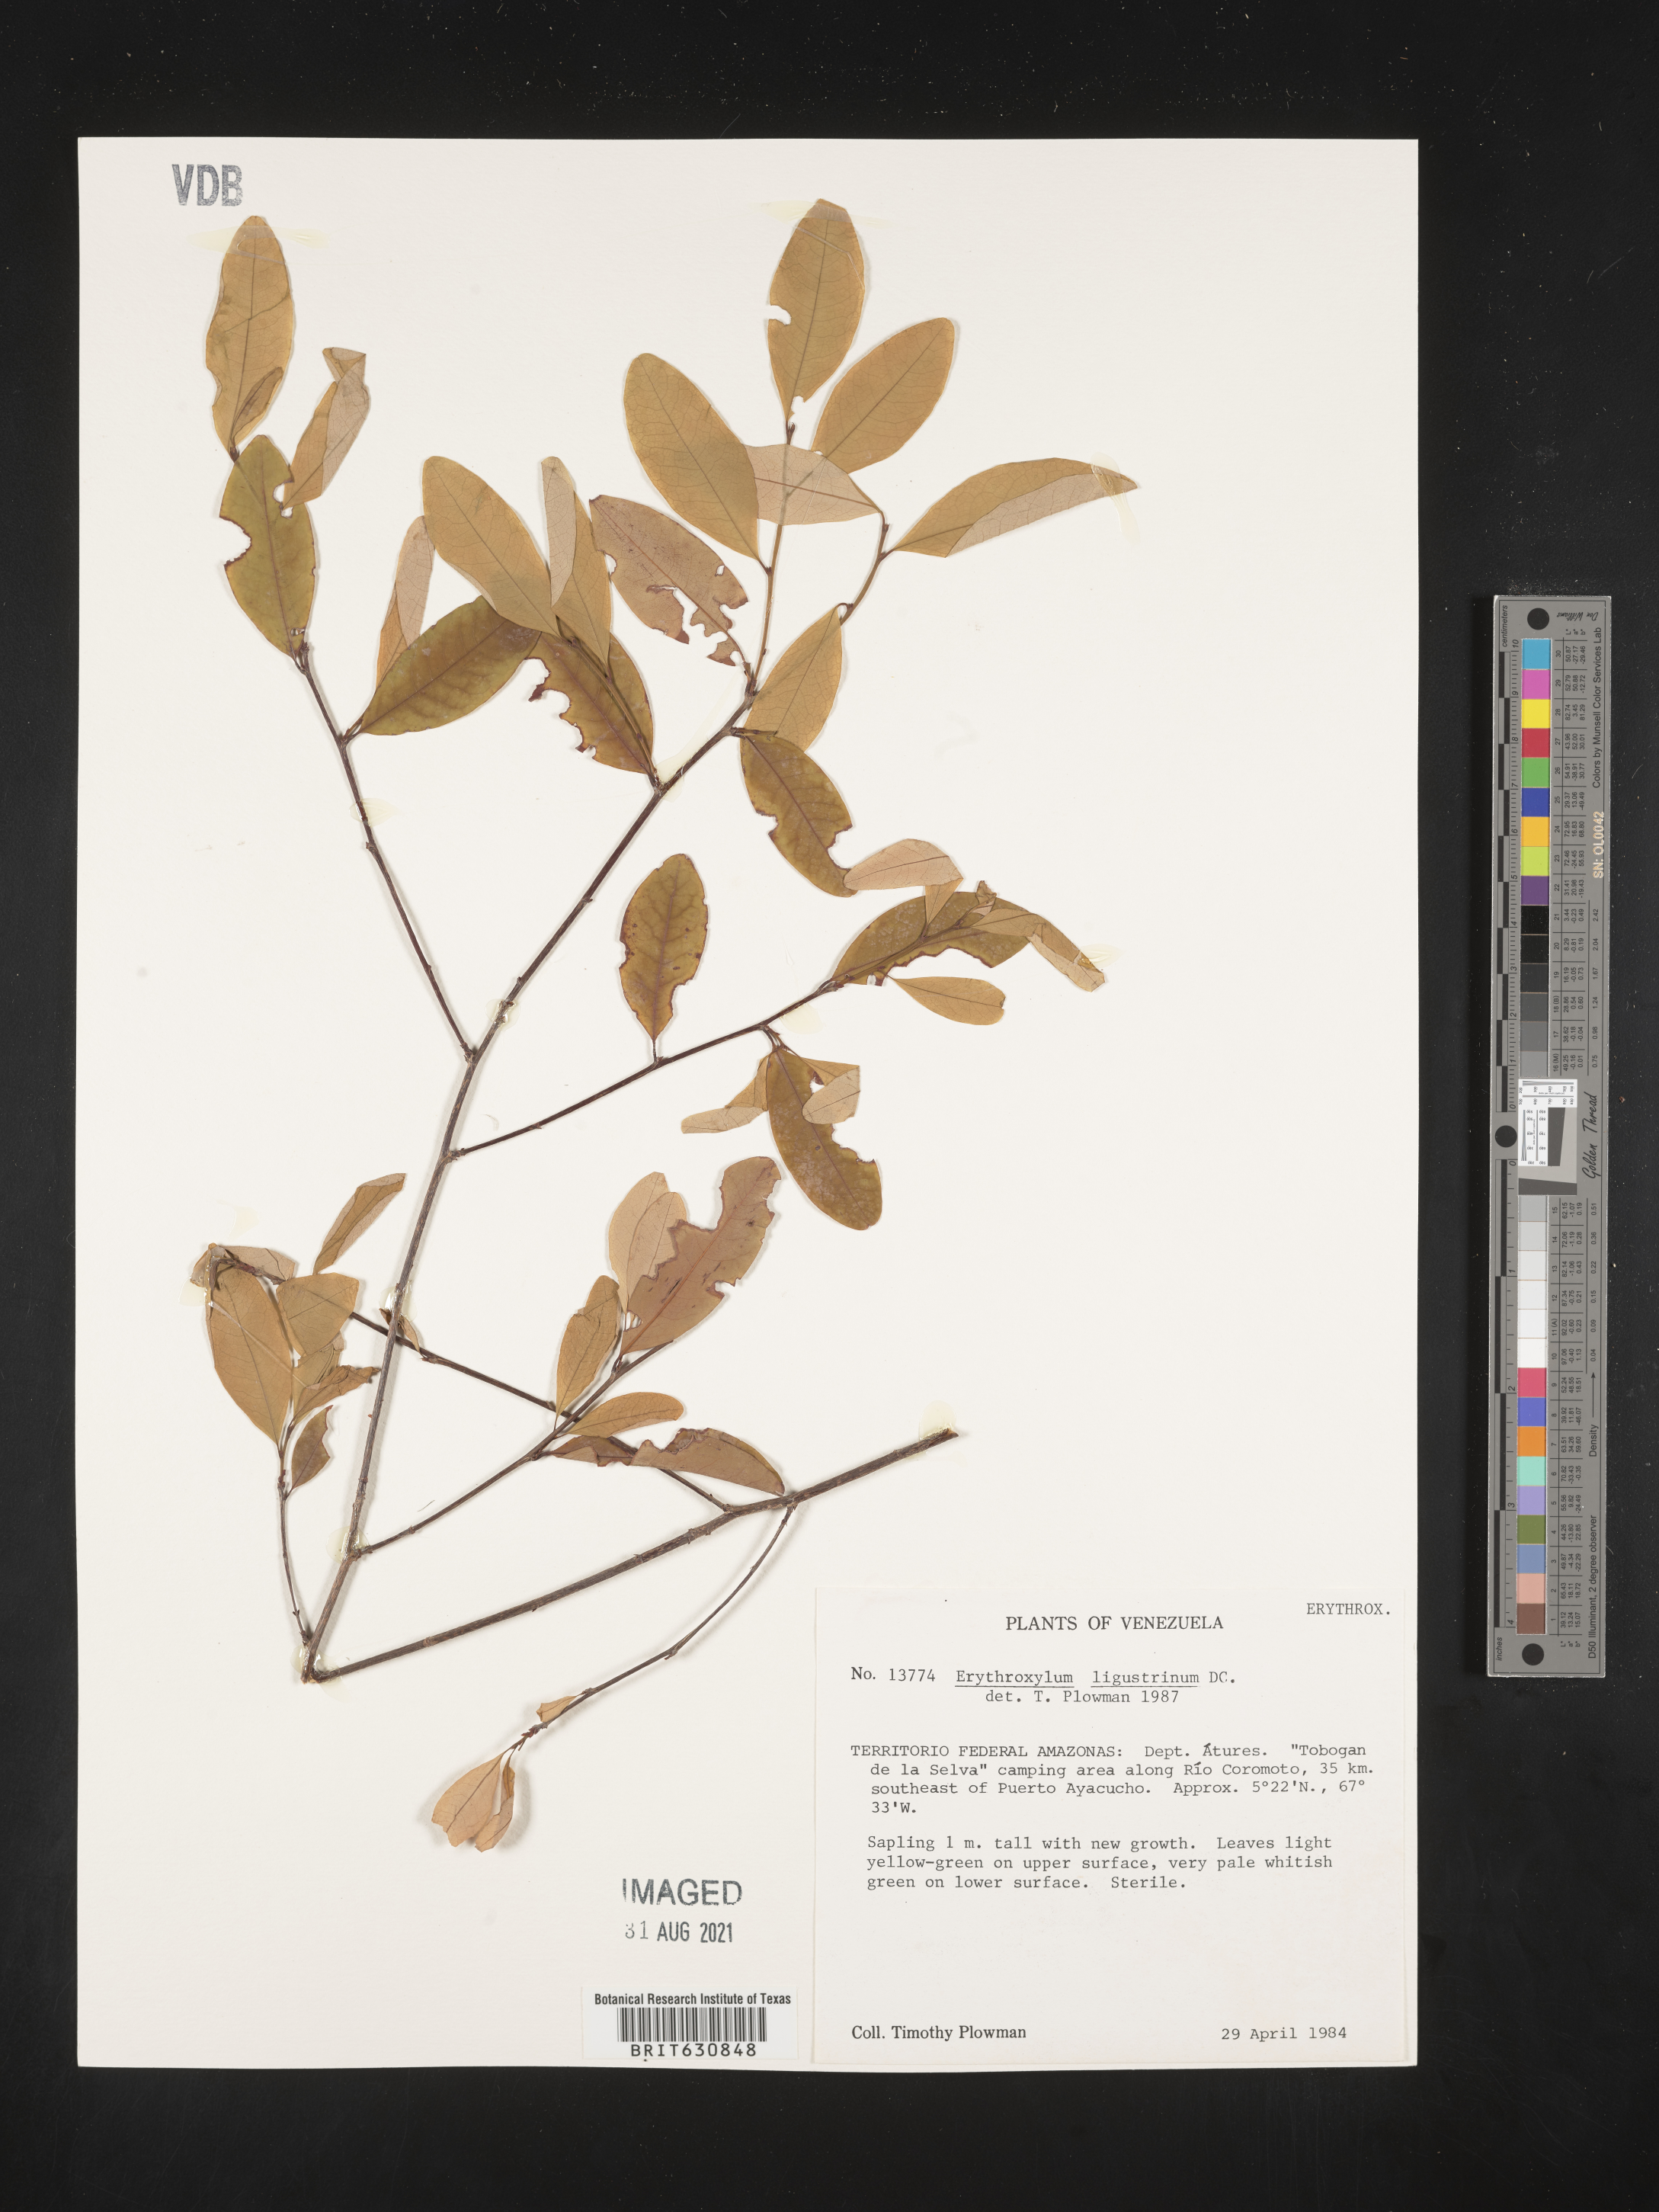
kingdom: Plantae
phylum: Tracheophyta
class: Magnoliopsida
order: Malpighiales
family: Erythroxylaceae
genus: Erythroxylum
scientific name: Erythroxylum
